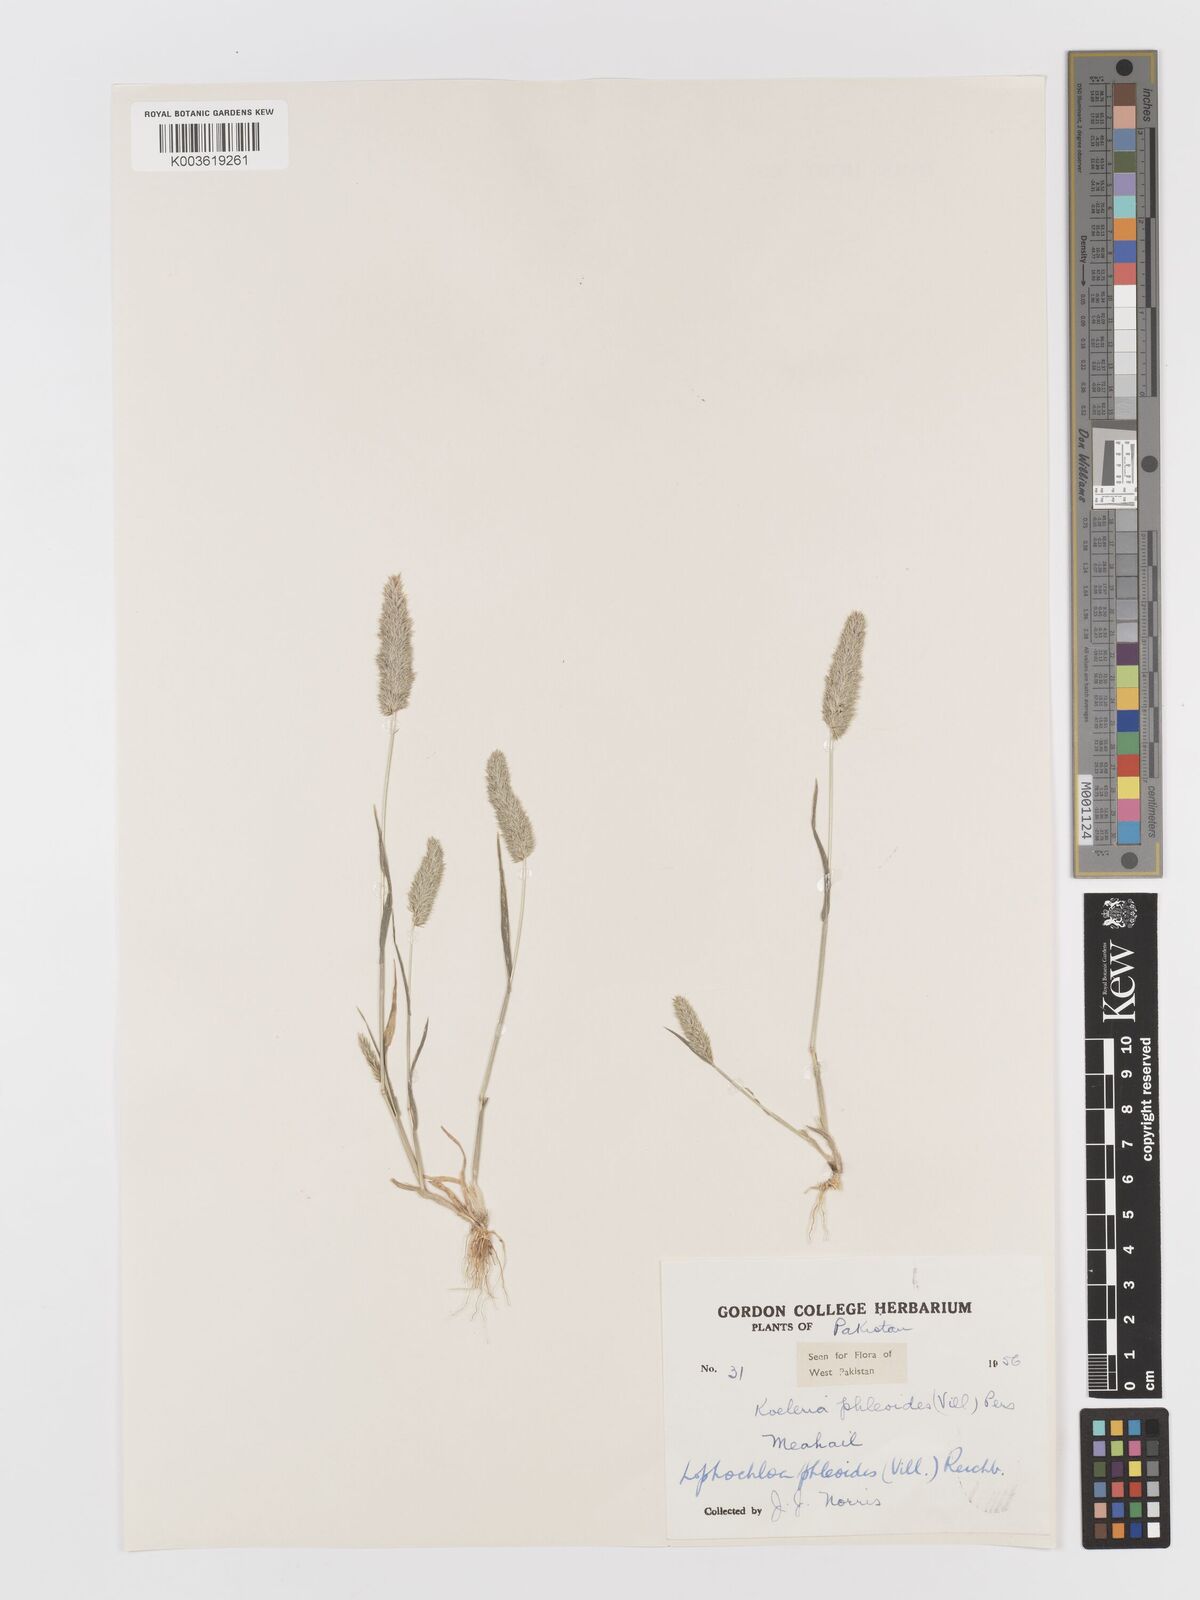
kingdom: Plantae
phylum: Tracheophyta
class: Liliopsida
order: Poales
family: Poaceae
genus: Rostraria
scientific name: Rostraria cristata
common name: Mediterranean hair-grass
